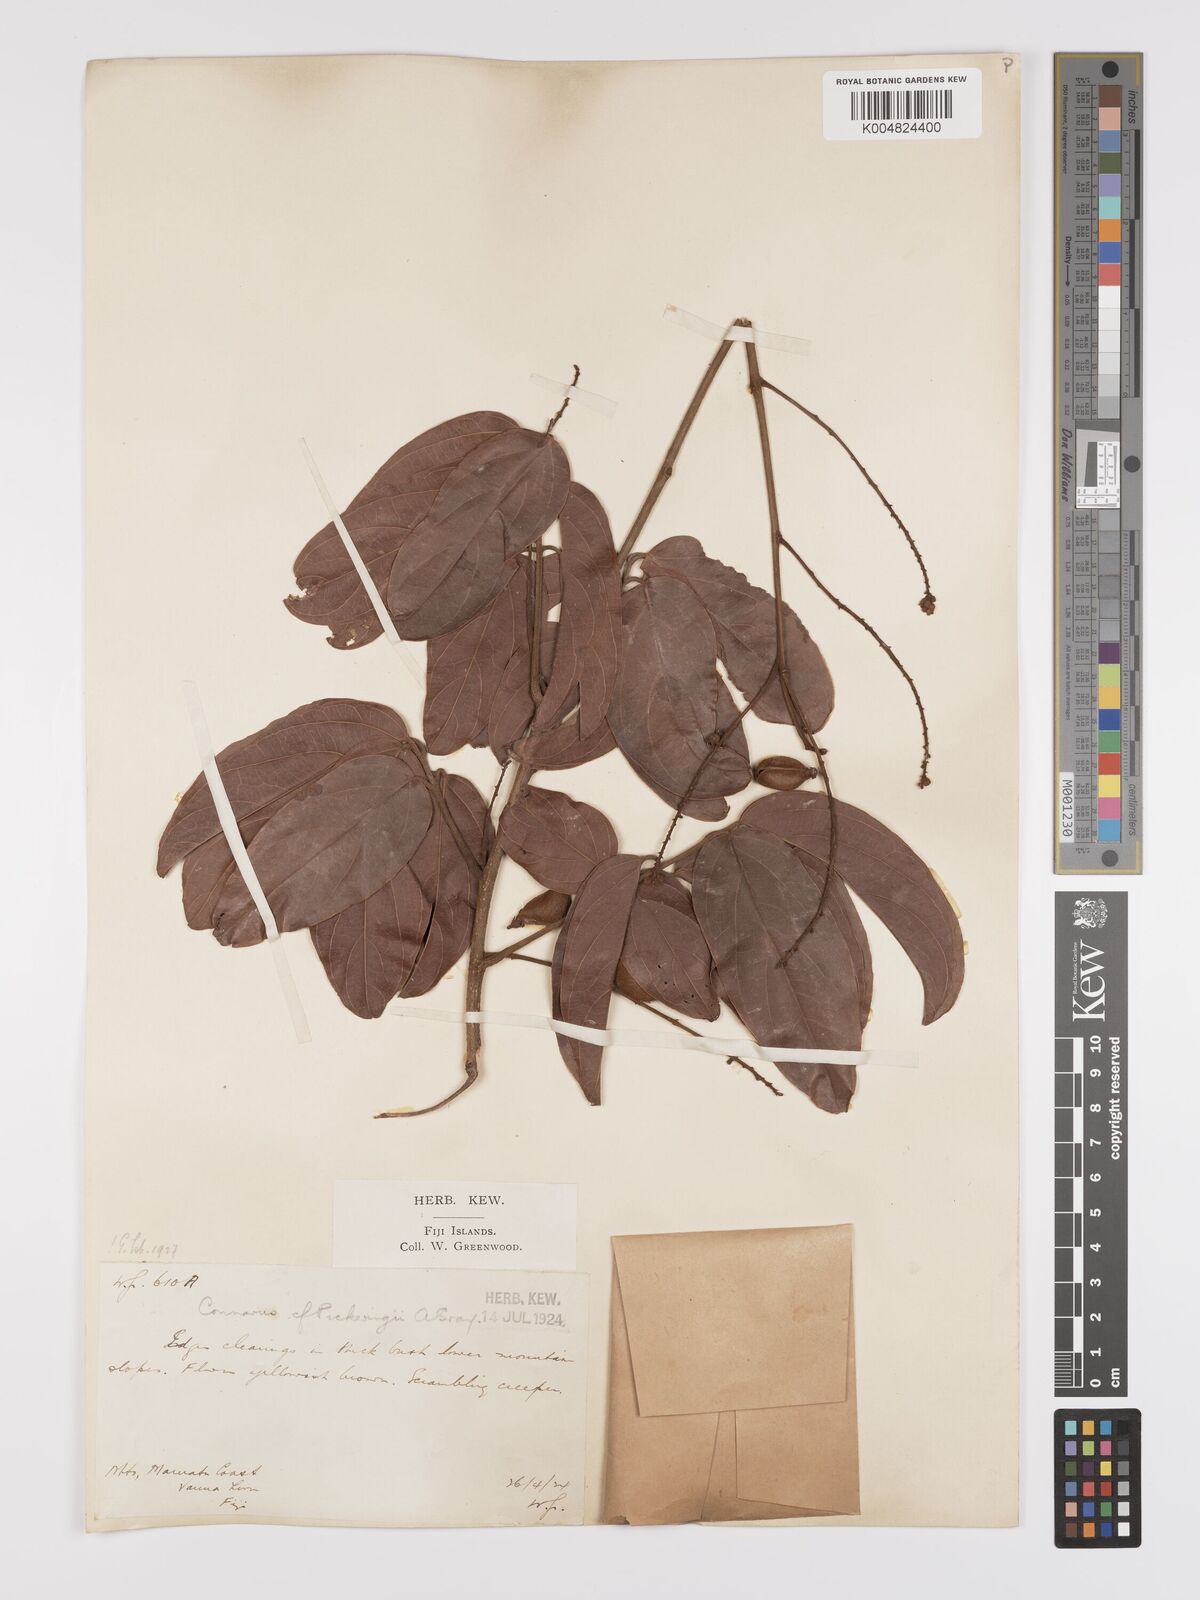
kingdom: Plantae
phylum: Tracheophyta
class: Magnoliopsida
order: Oxalidales
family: Connaraceae
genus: Connarus
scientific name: Connarus pickeringii
